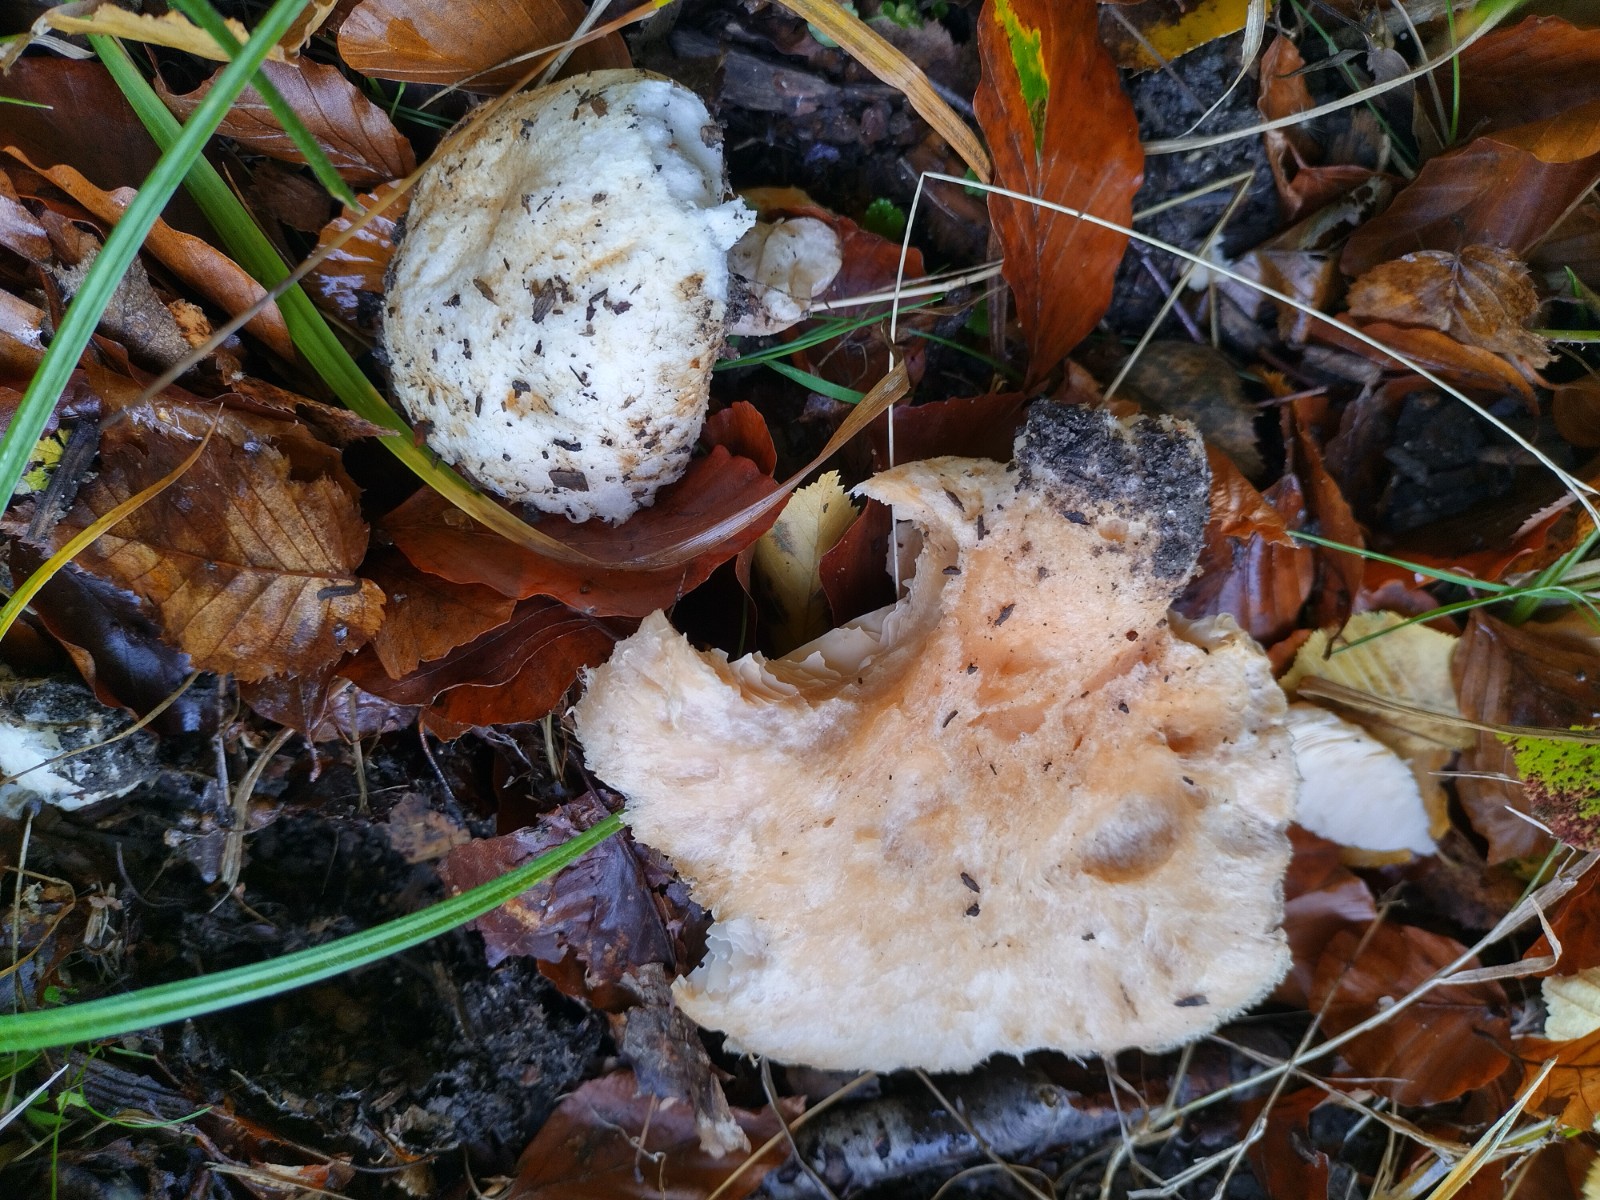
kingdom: Fungi
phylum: Basidiomycota
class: Agaricomycetes
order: Russulales
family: Russulaceae
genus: Lactarius
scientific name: Lactarius
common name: mælkehat
